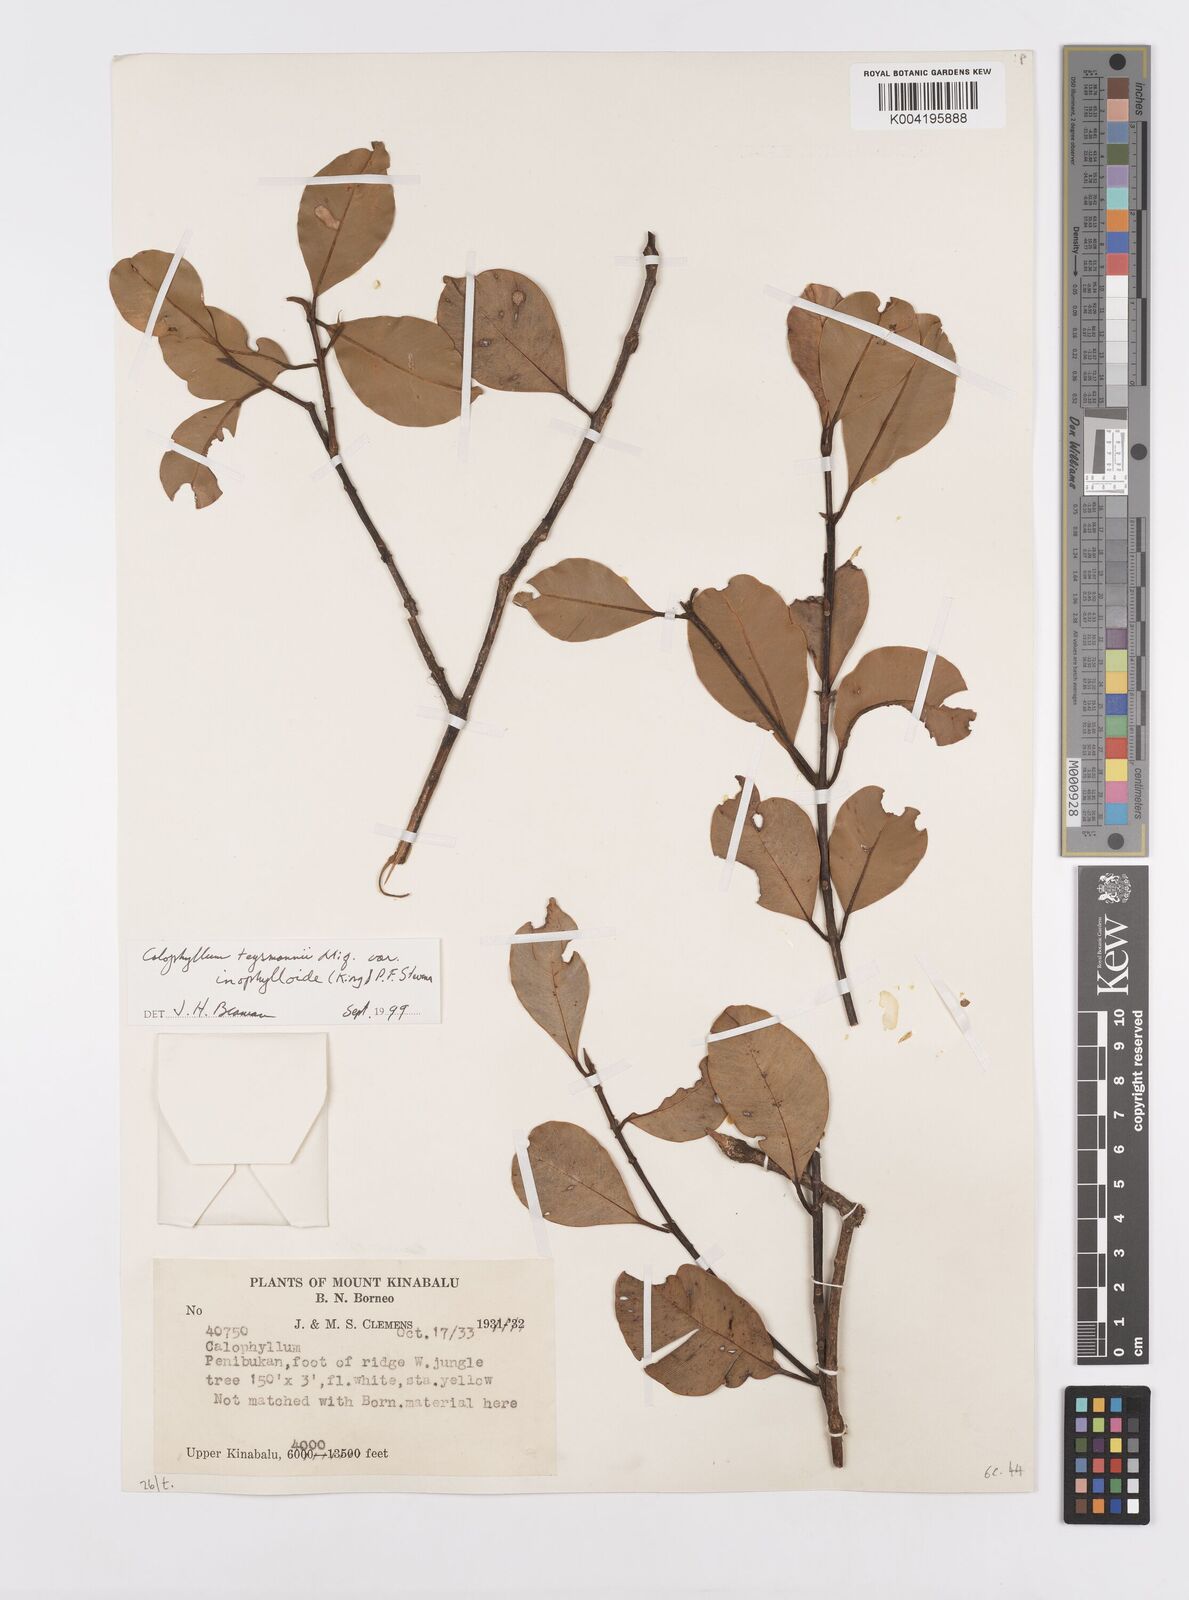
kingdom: Plantae
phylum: Tracheophyta
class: Magnoliopsida
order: Malpighiales
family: Calophyllaceae
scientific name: Calophyllaceae
